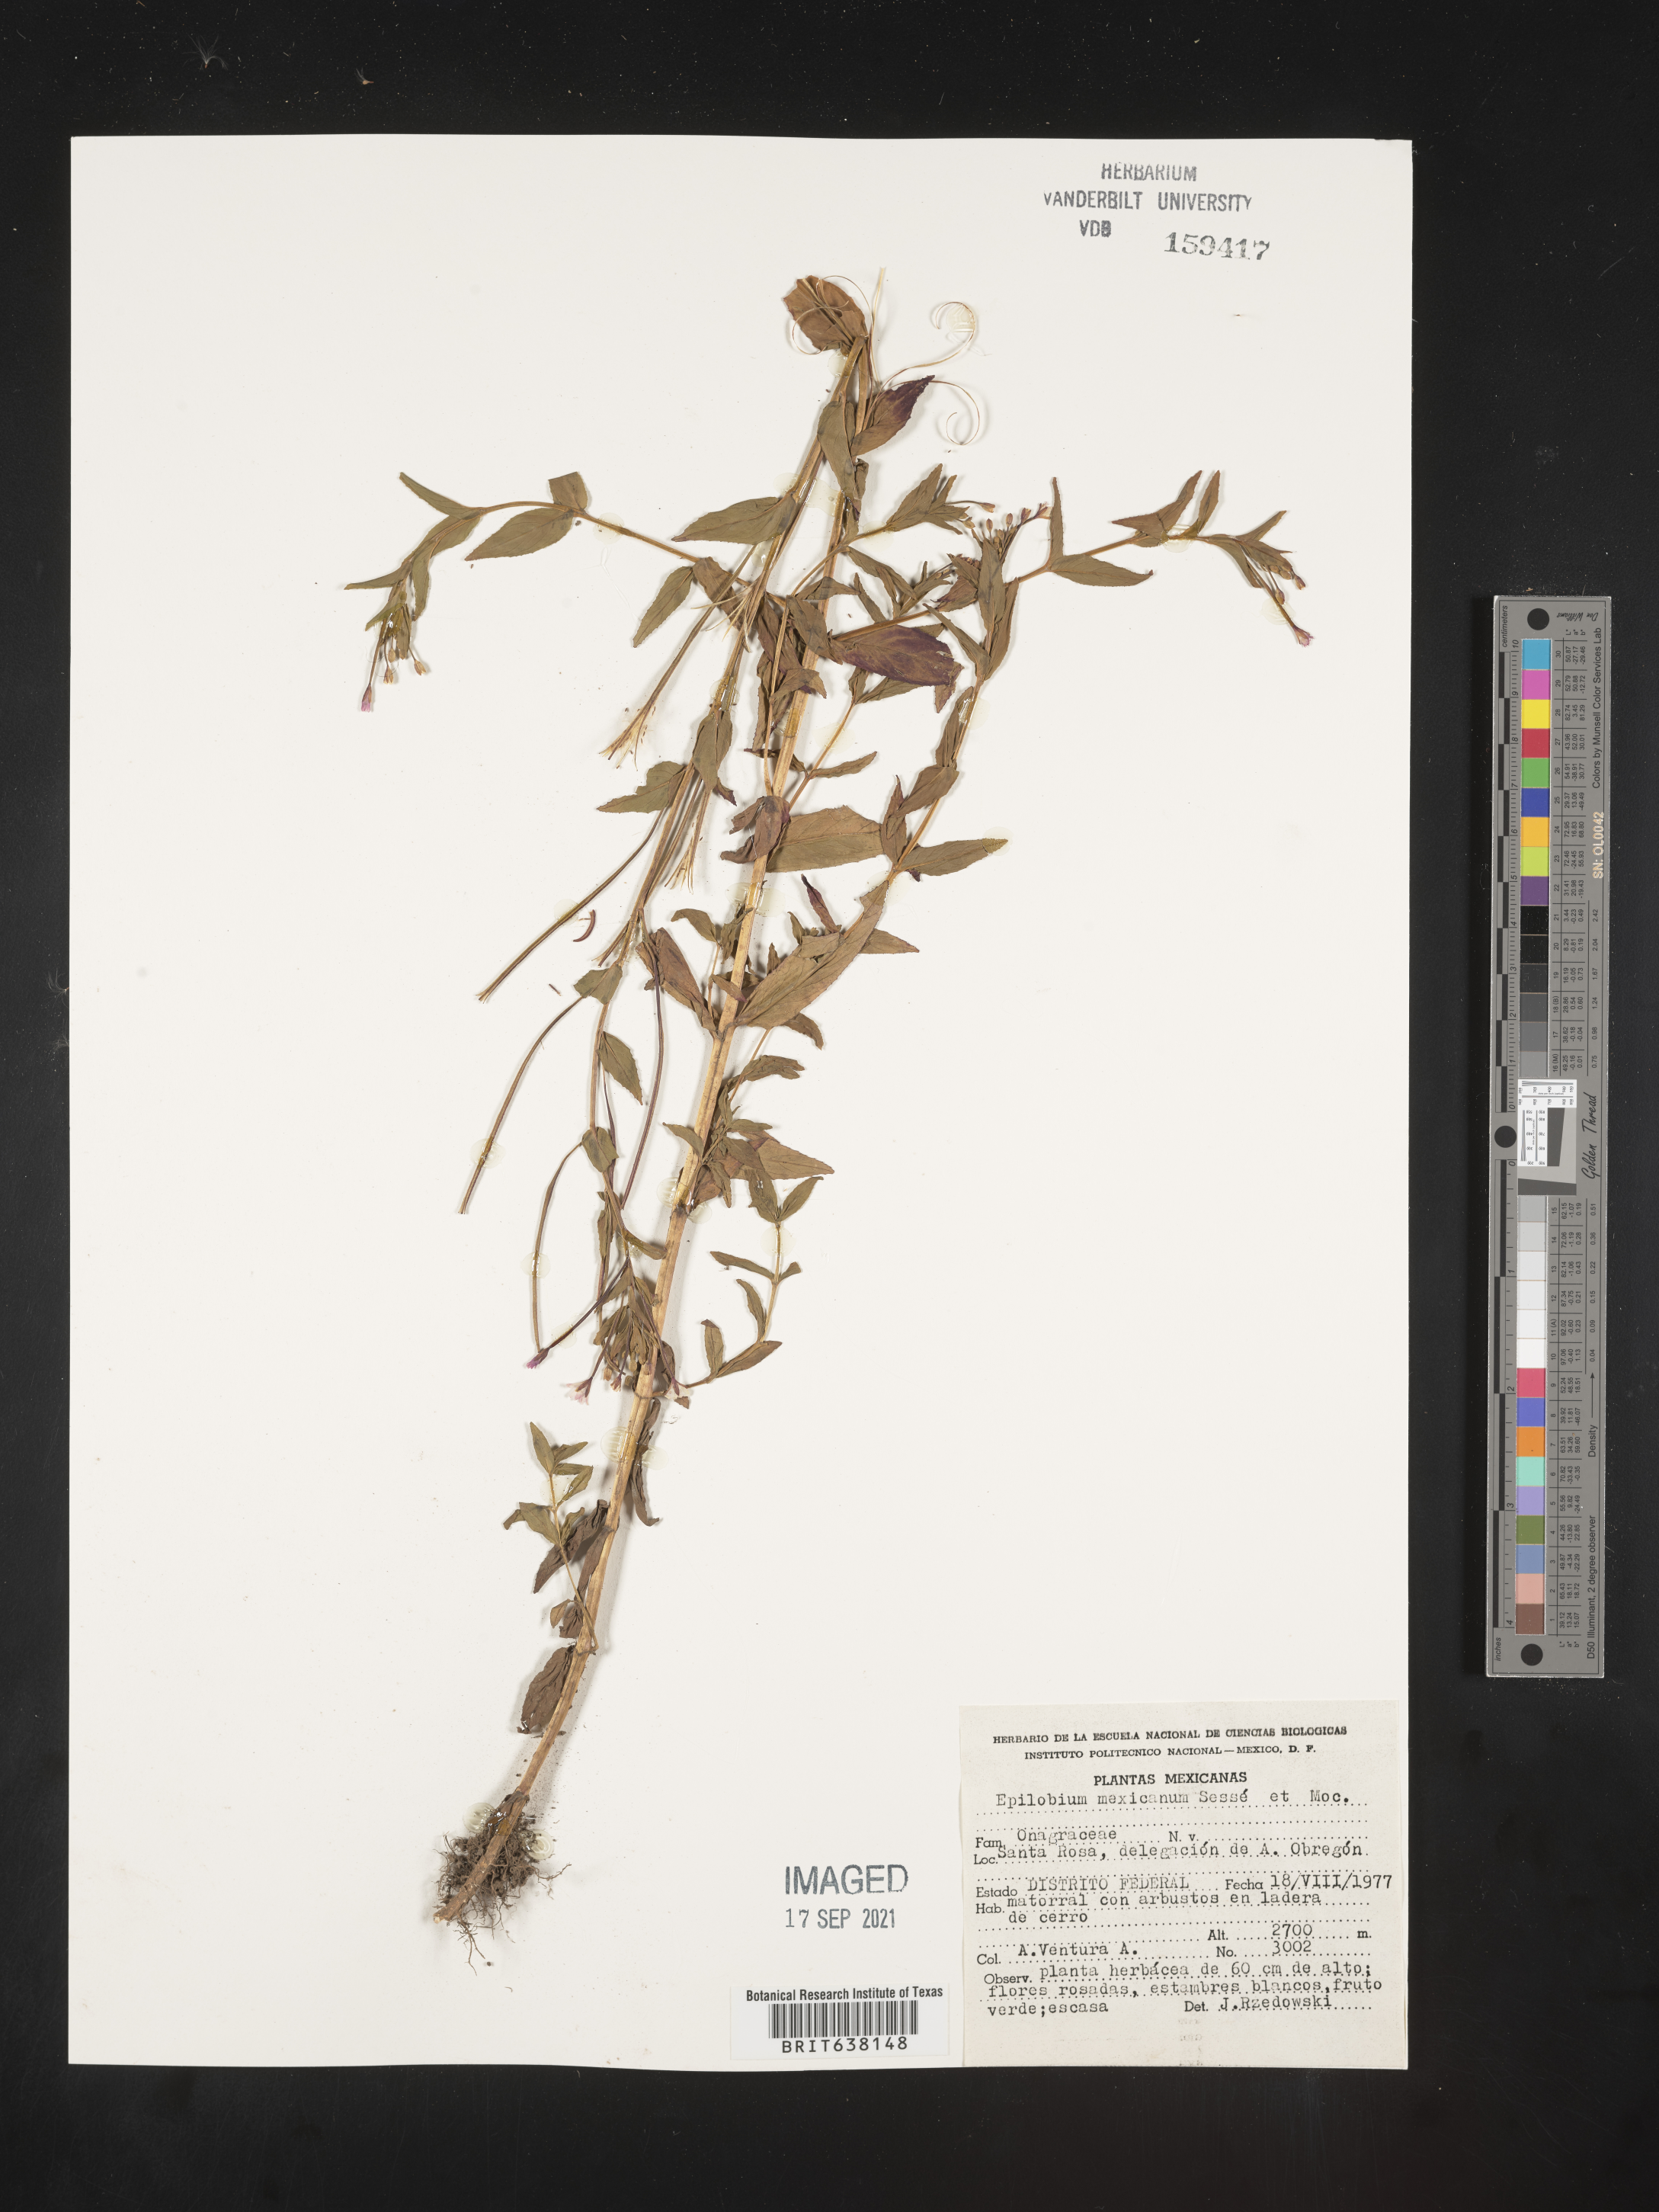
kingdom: Plantae
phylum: Tracheophyta
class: Magnoliopsida
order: Myrtales
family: Onagraceae
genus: Epilobium
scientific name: Epilobium
